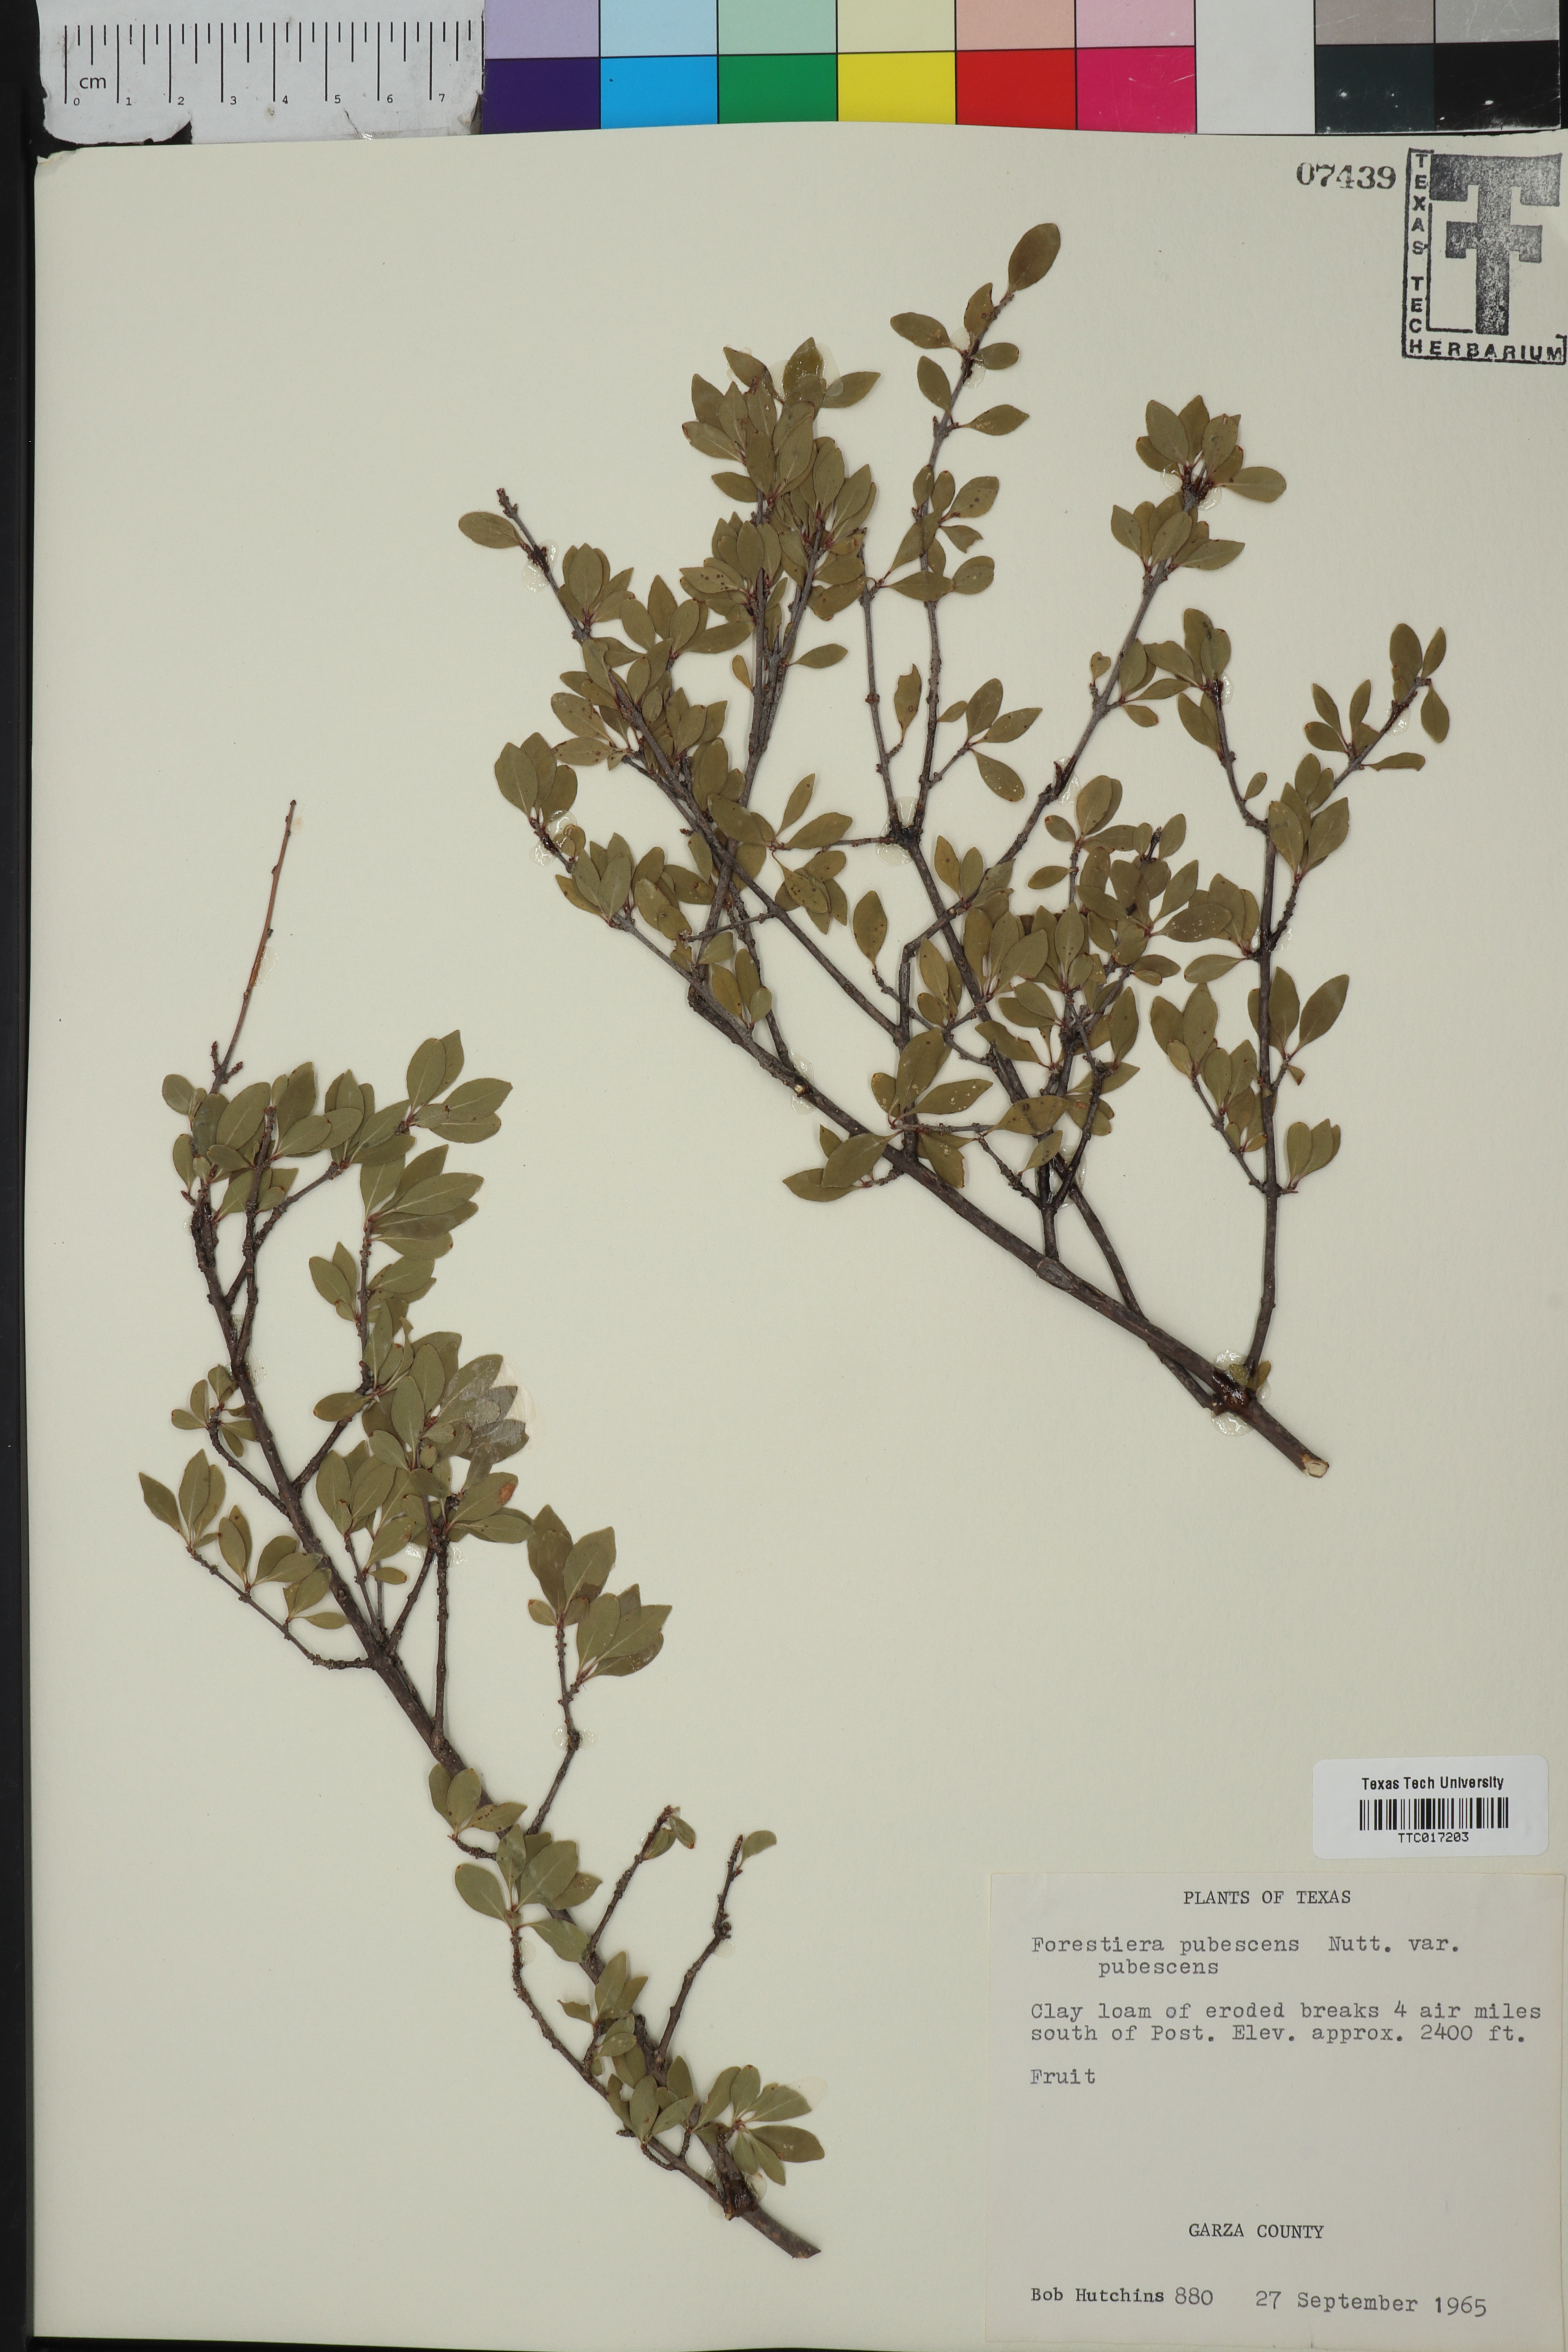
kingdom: Plantae
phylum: Tracheophyta
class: Magnoliopsida
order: Lamiales
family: Oleaceae
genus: Forestiera
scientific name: Forestiera pubescens
